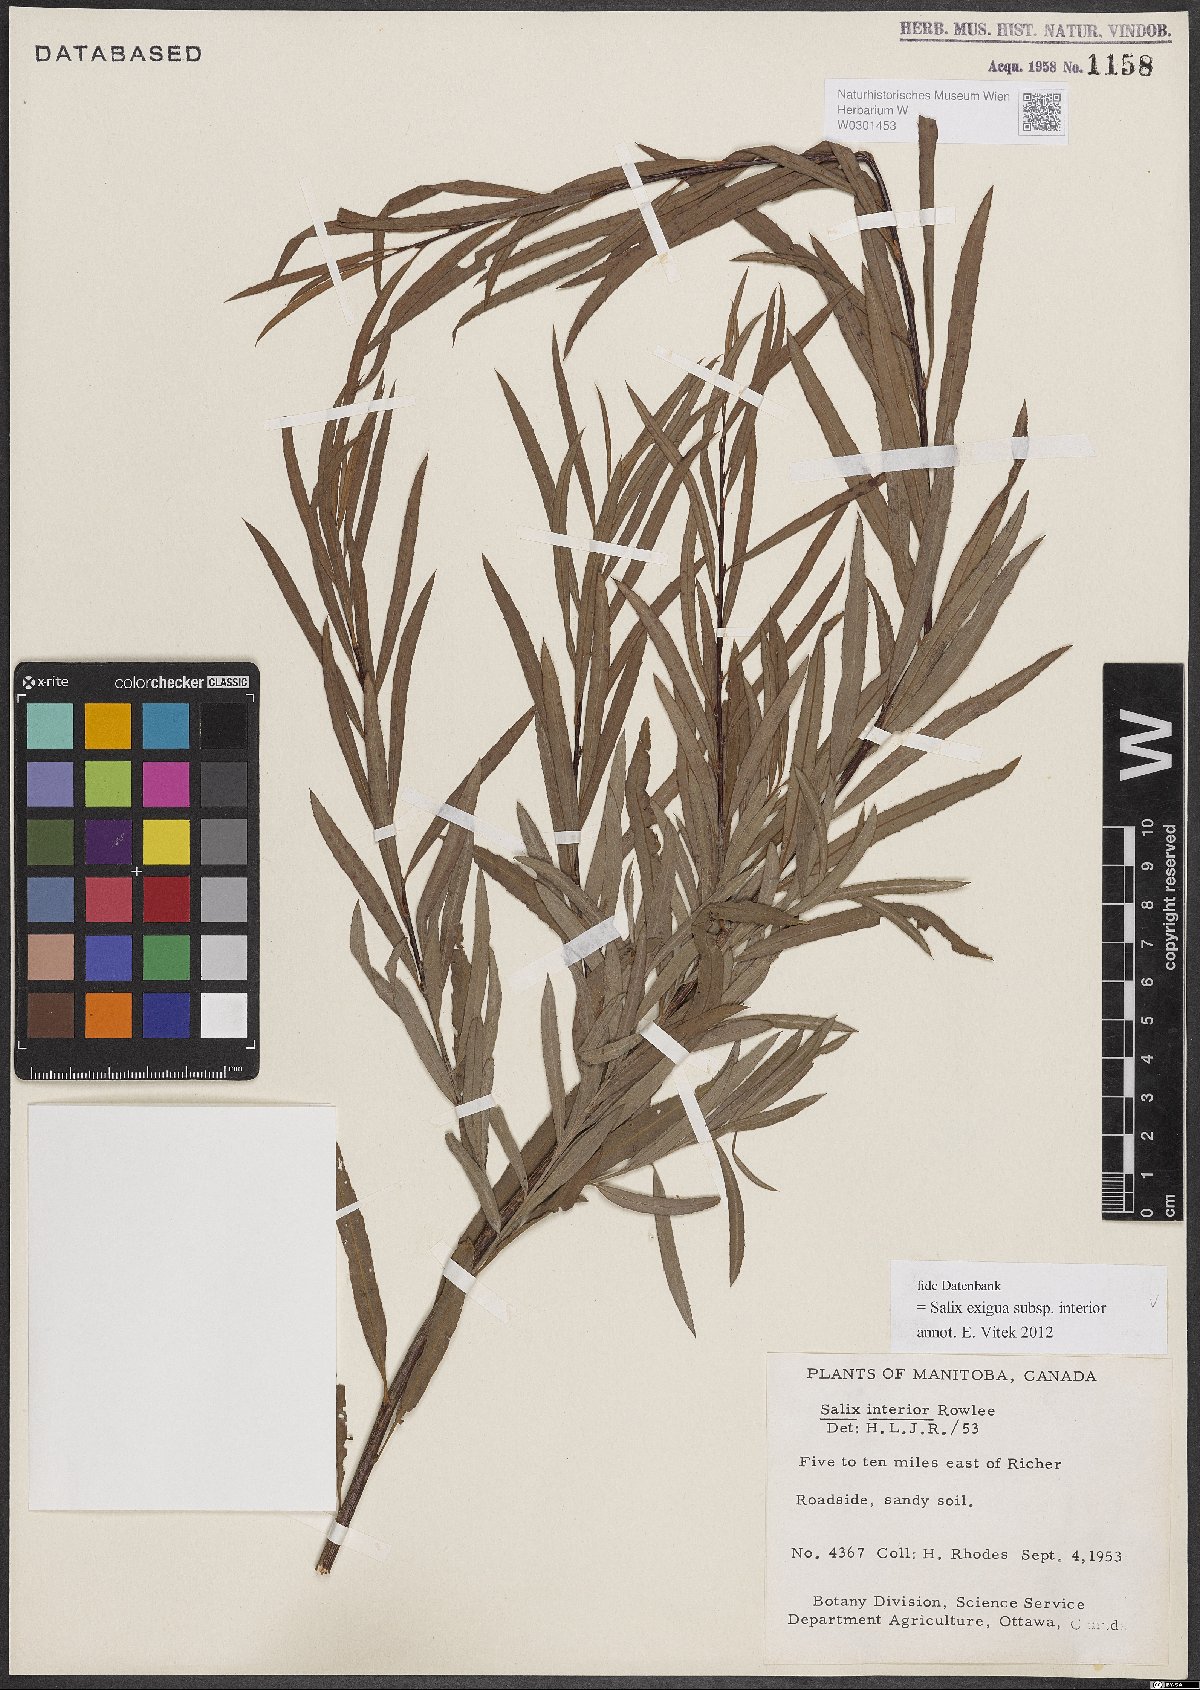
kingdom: Plantae
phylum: Tracheophyta
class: Magnoliopsida
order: Malpighiales
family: Salicaceae
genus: Salix
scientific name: Salix interior
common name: Sandbar willow
